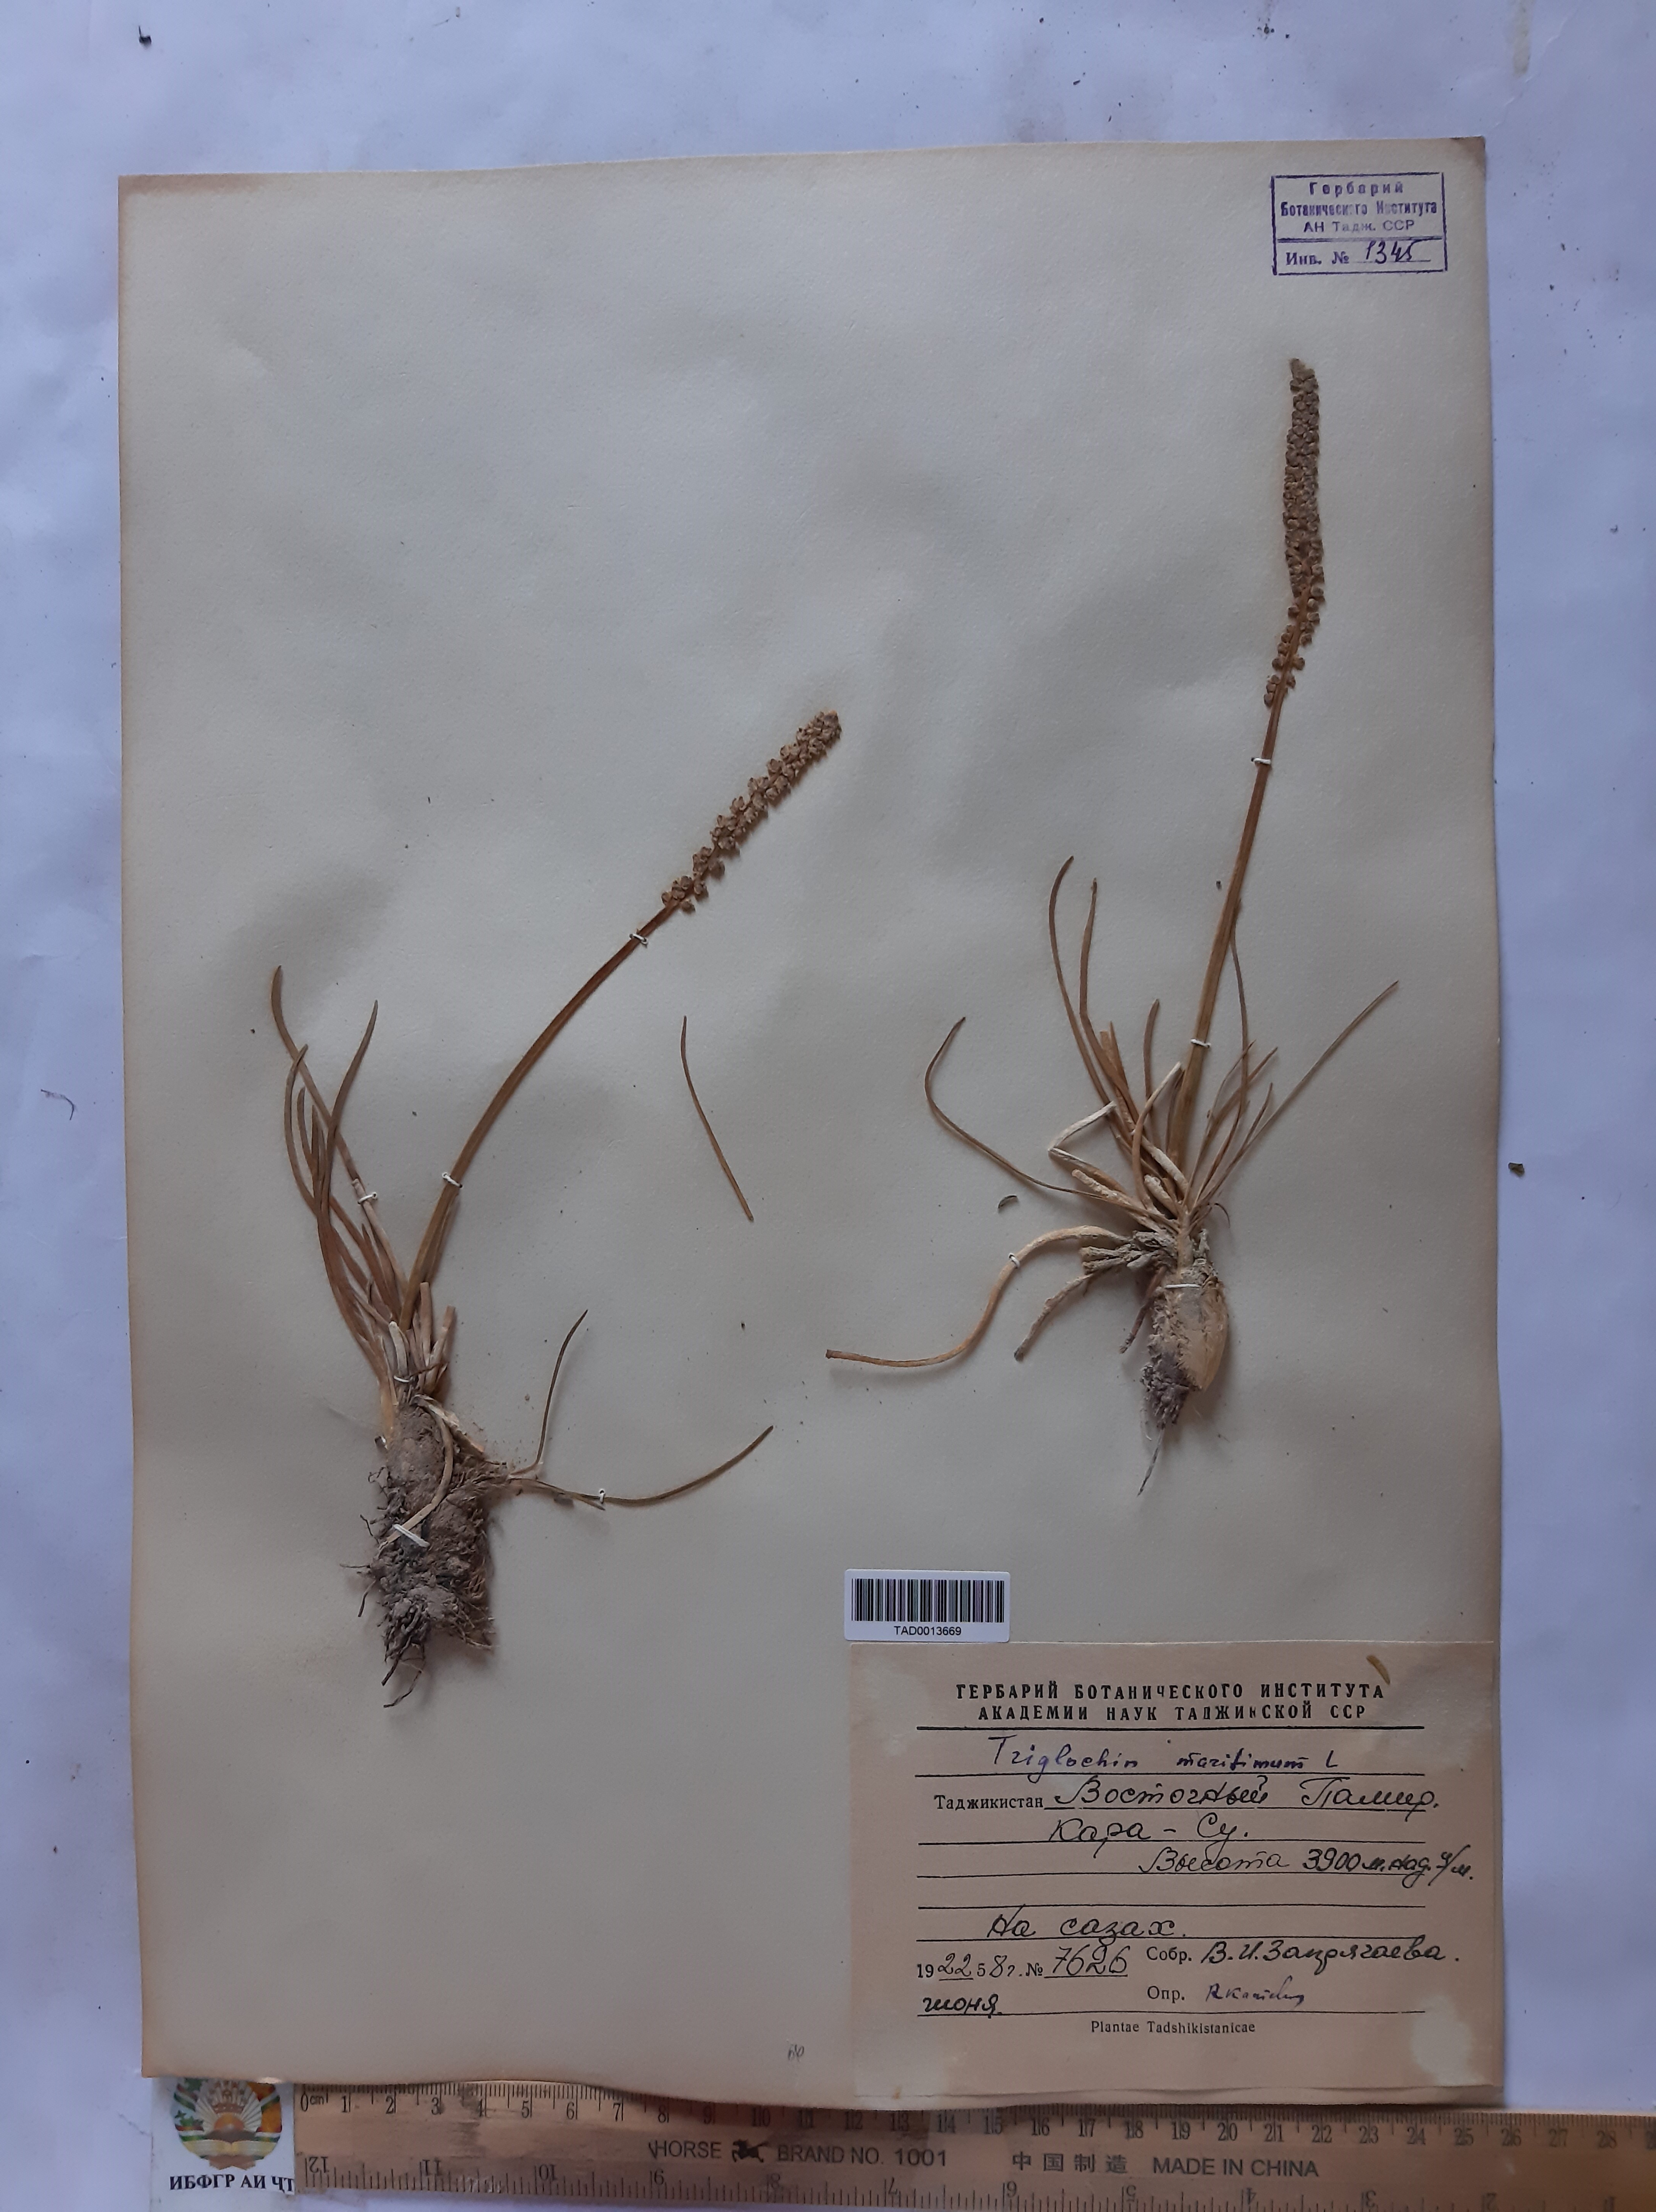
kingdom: Plantae
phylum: Tracheophyta
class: Liliopsida
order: Alismatales
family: Juncaginaceae
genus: Triglochin
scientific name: Triglochin maritima
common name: Sea arrowgrass
